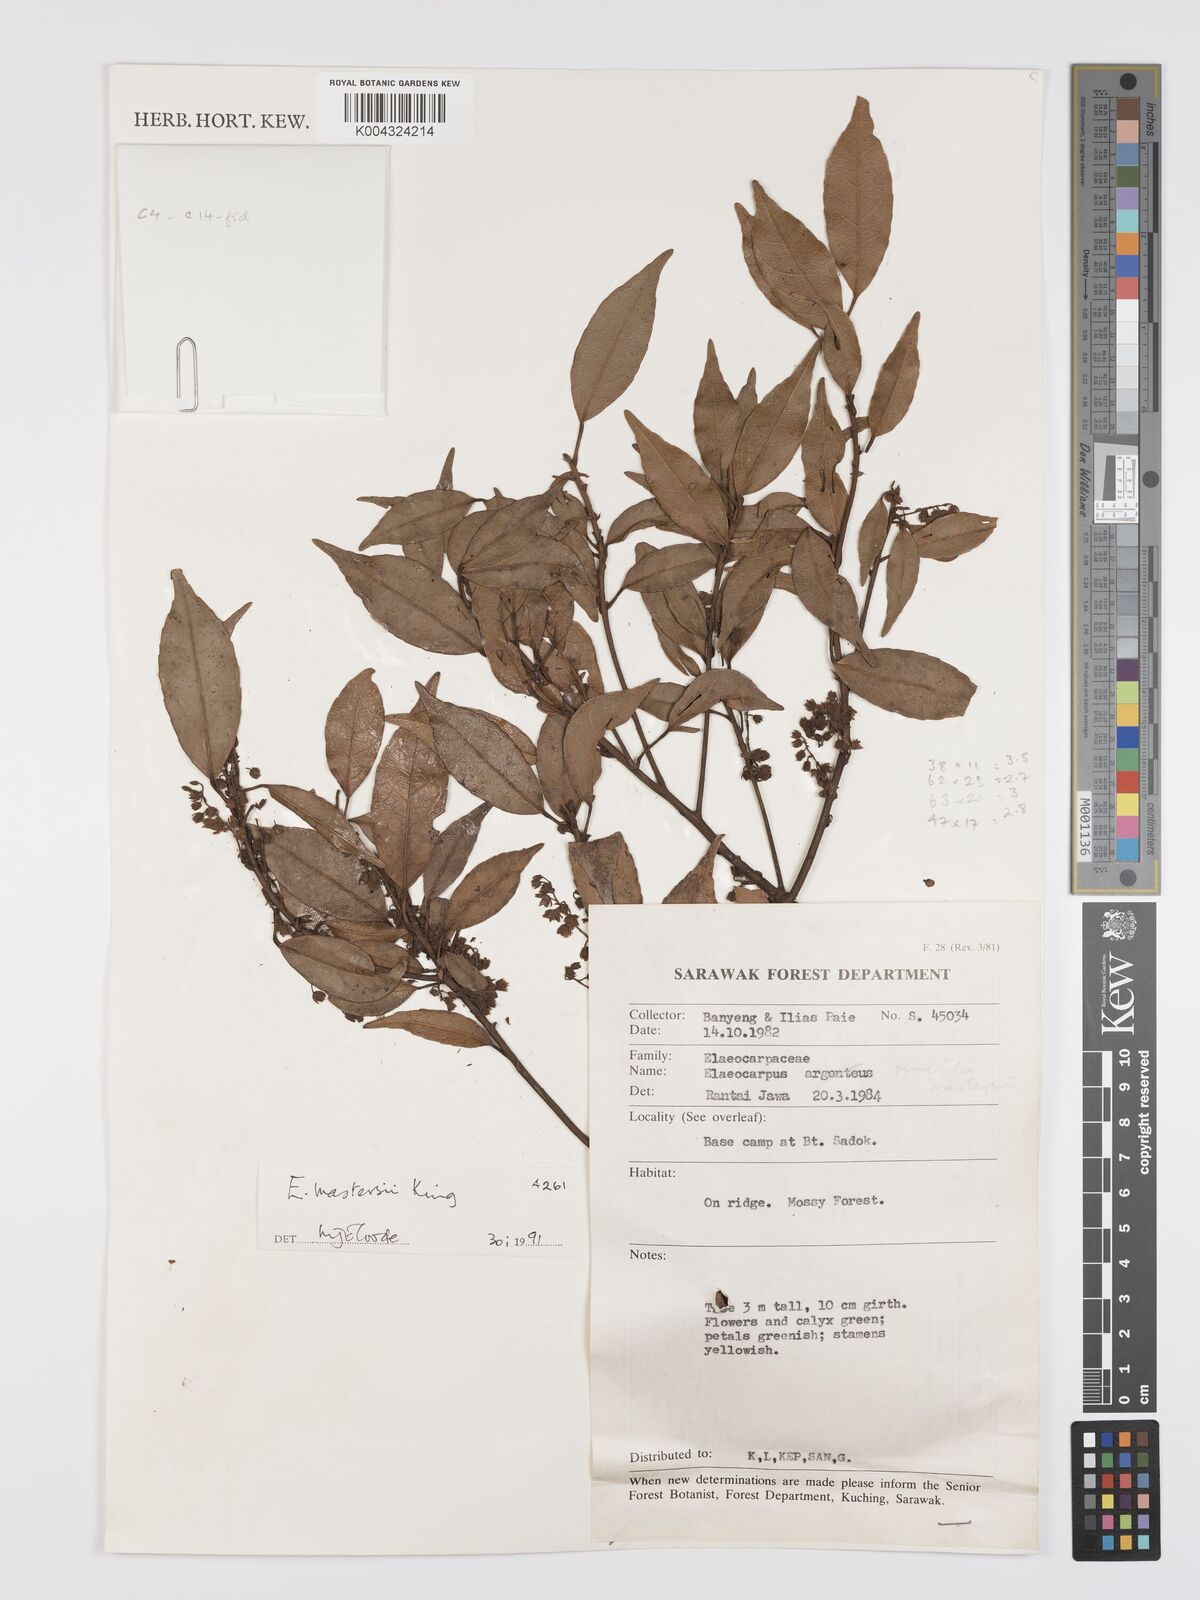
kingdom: Plantae
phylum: Tracheophyta
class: Magnoliopsida
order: Oxalidales
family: Elaeocarpaceae
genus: Elaeocarpus
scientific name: Elaeocarpus mastersii
